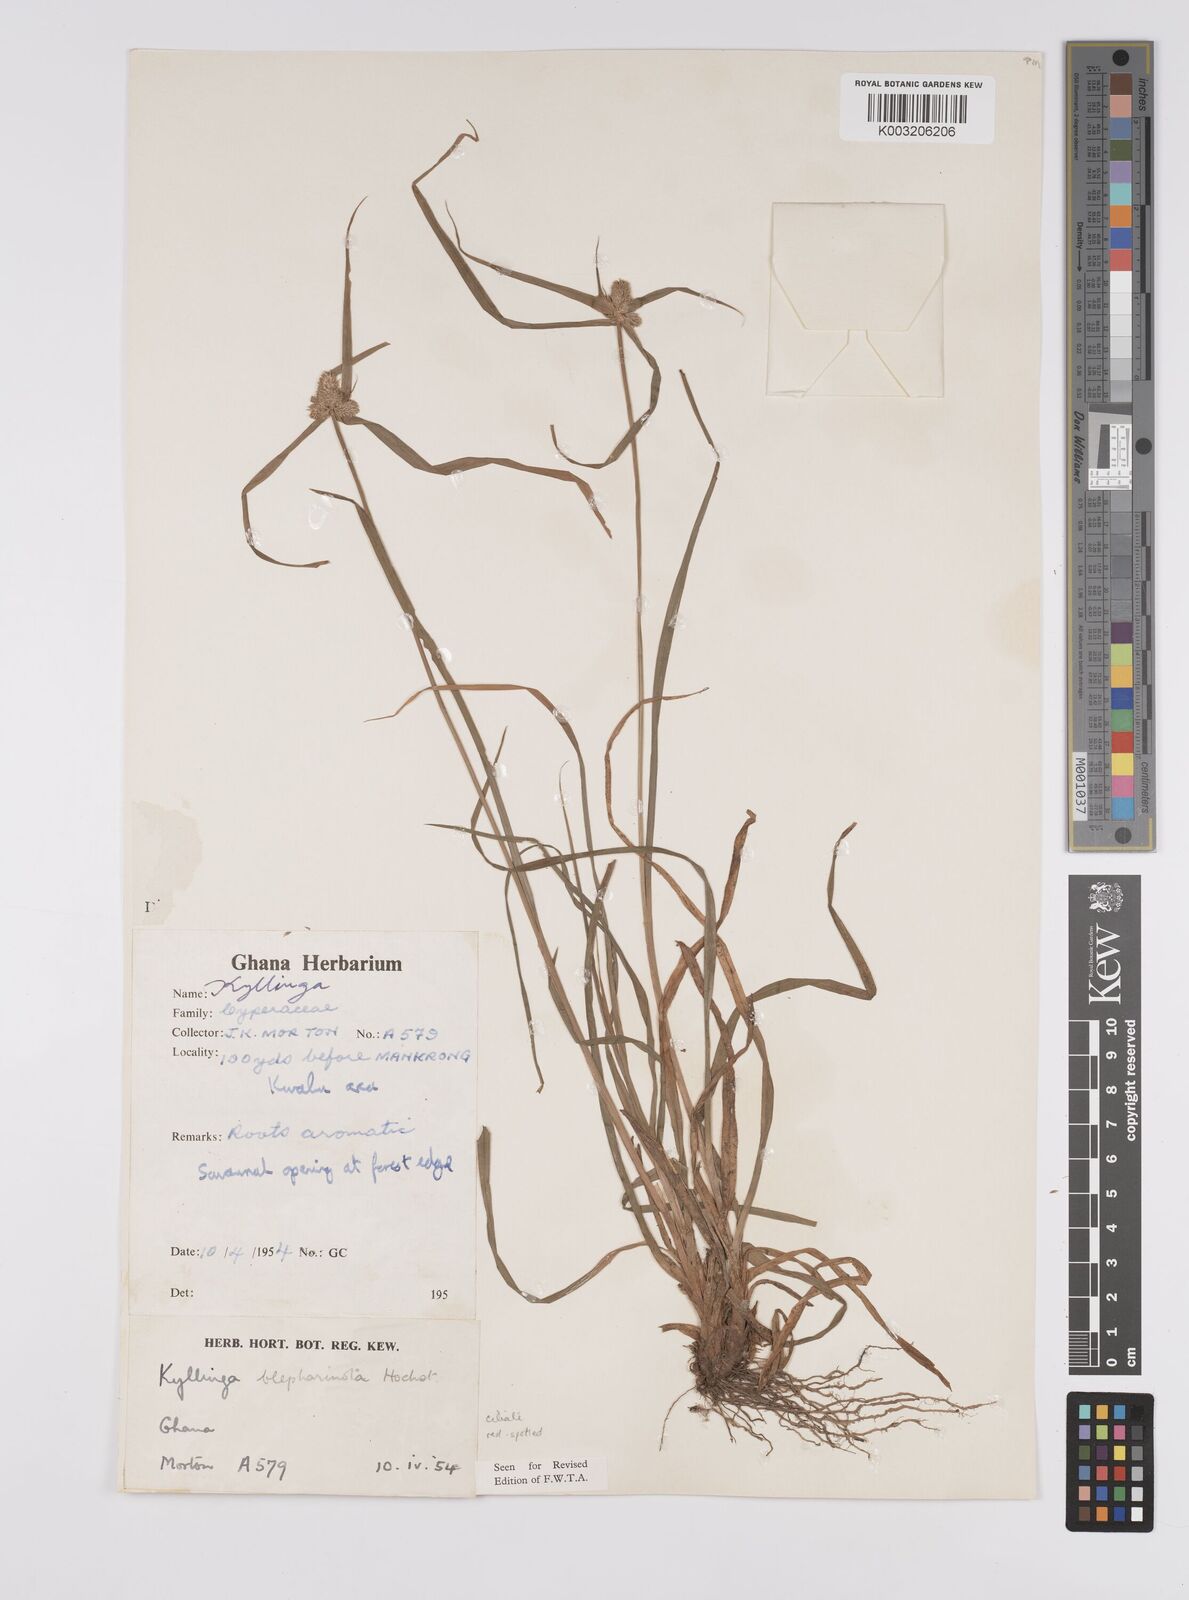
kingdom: Plantae
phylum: Tracheophyta
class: Liliopsida
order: Poales
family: Cyperaceae
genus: Cyperus
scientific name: Cyperus
